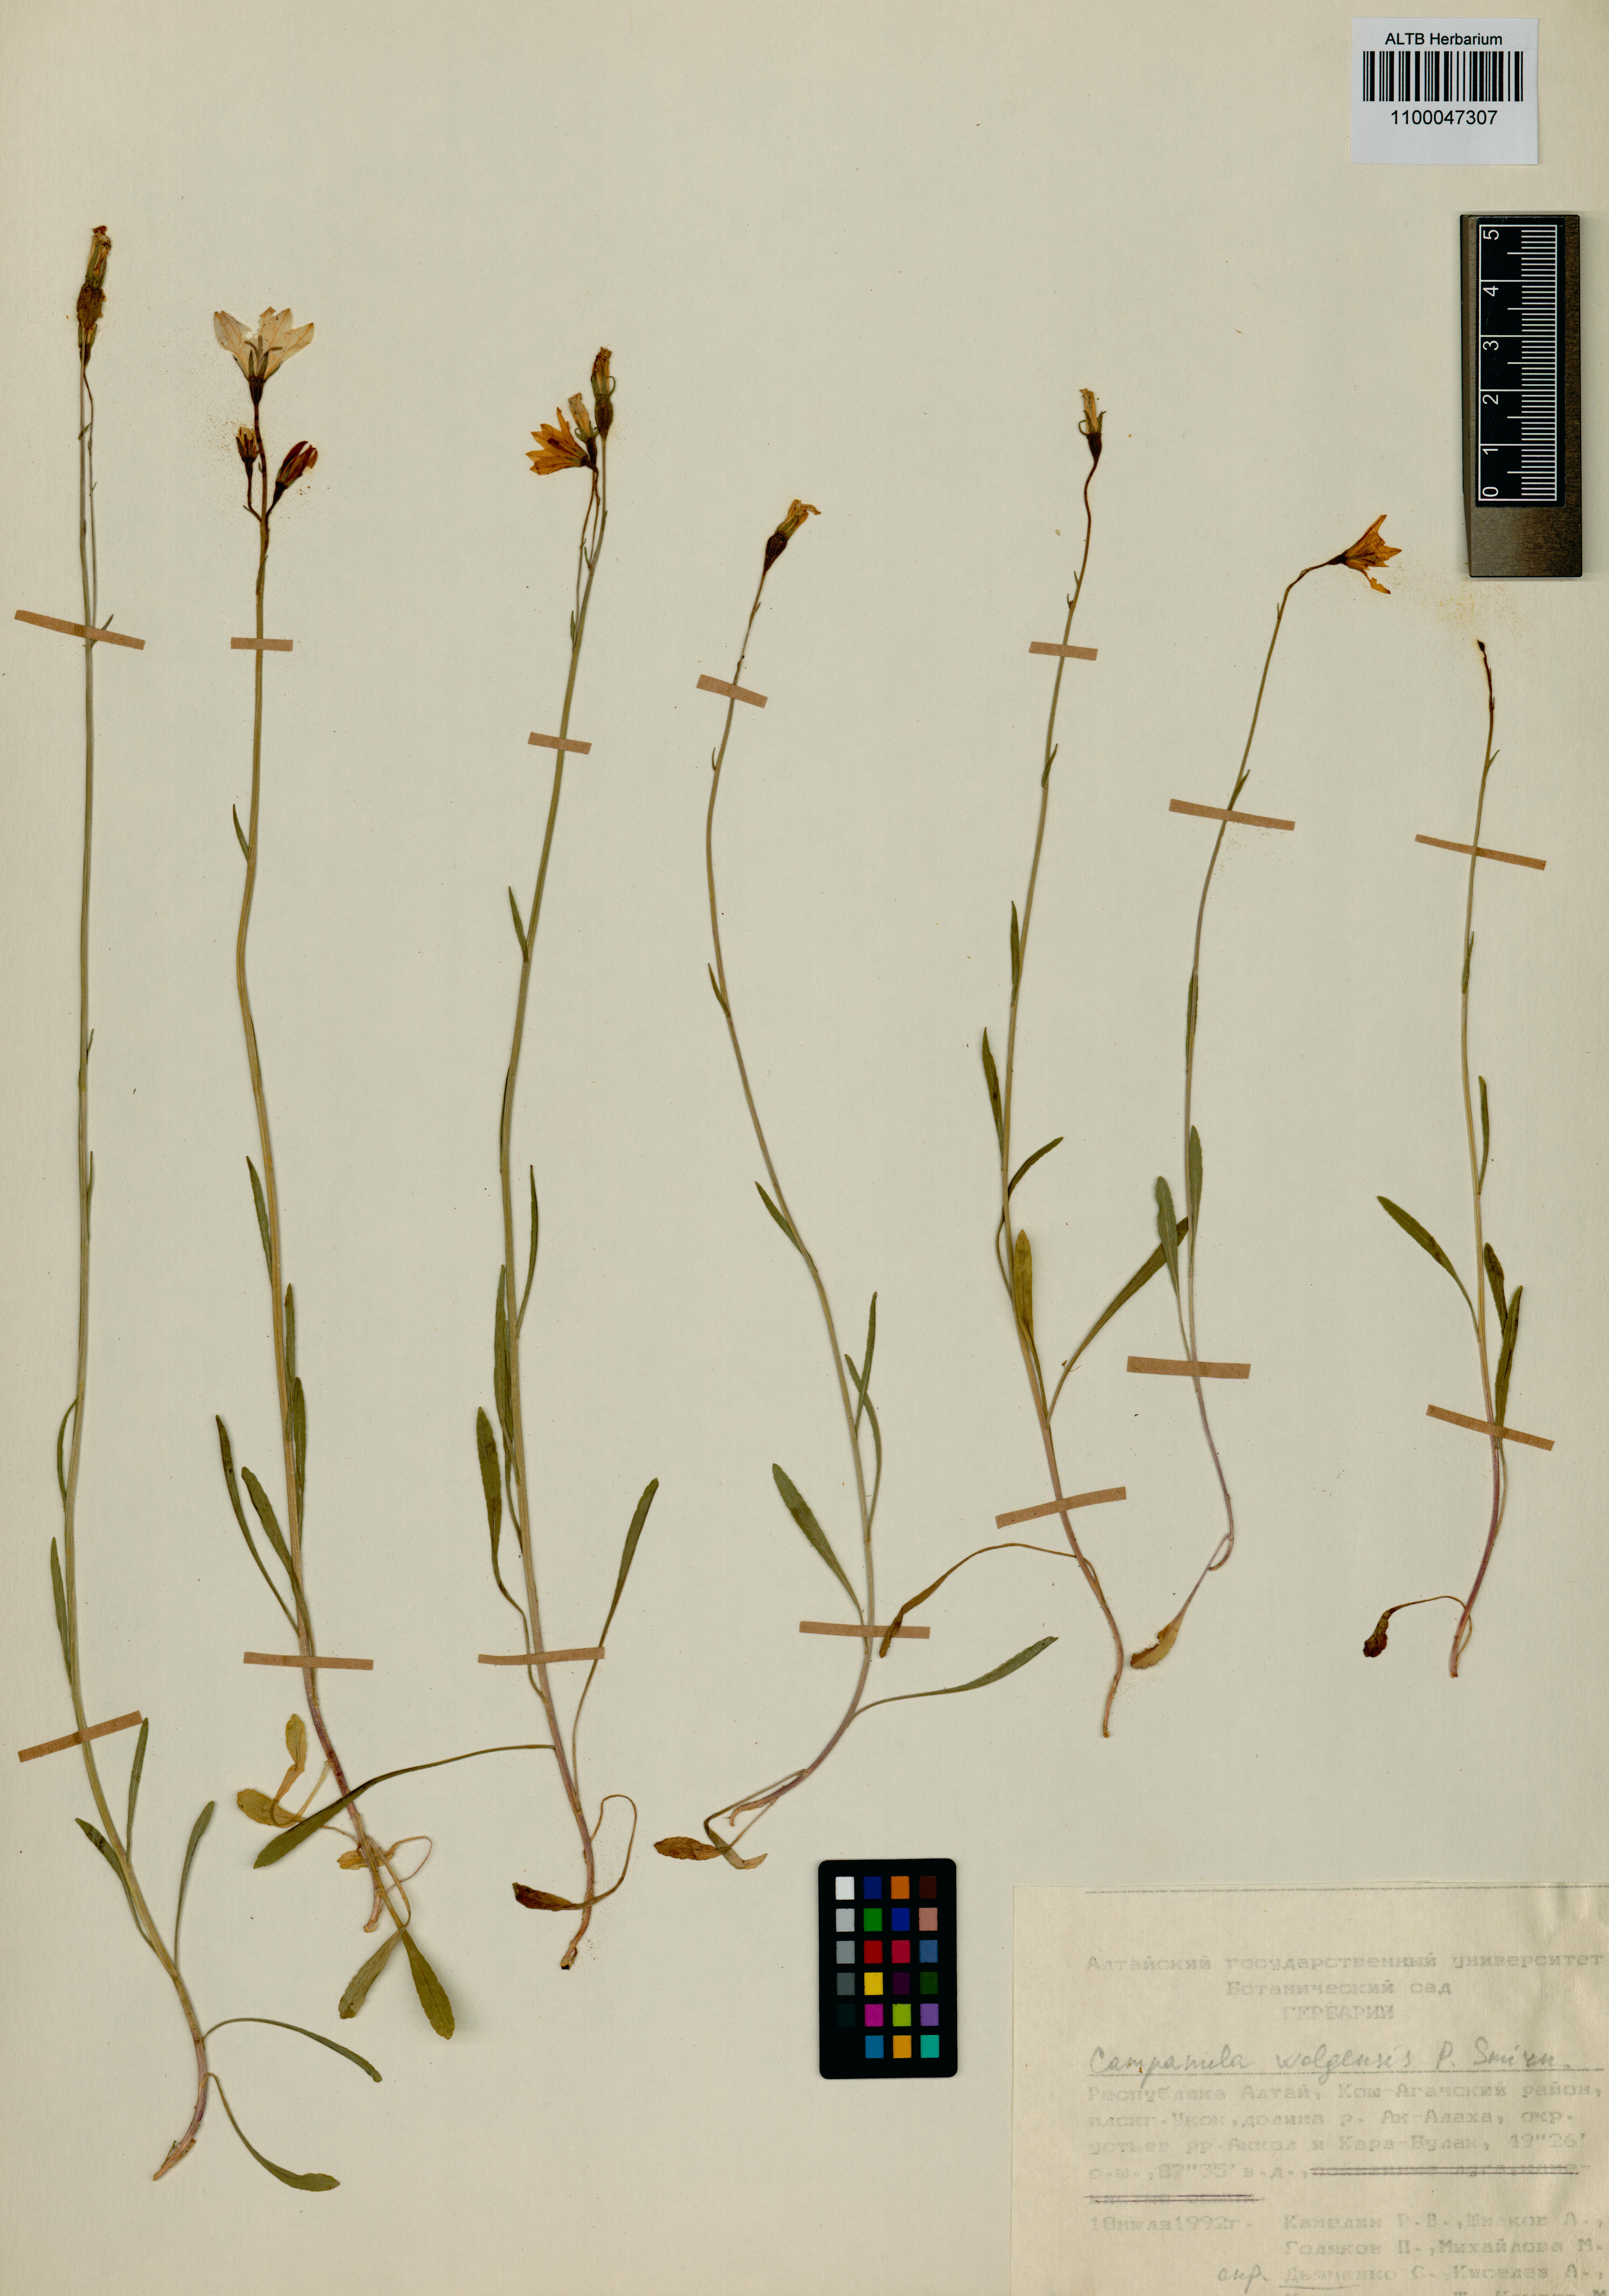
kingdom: Plantae
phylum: Tracheophyta
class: Magnoliopsida
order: Asterales
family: Campanulaceae
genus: Campanula
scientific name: Campanula stevenii
